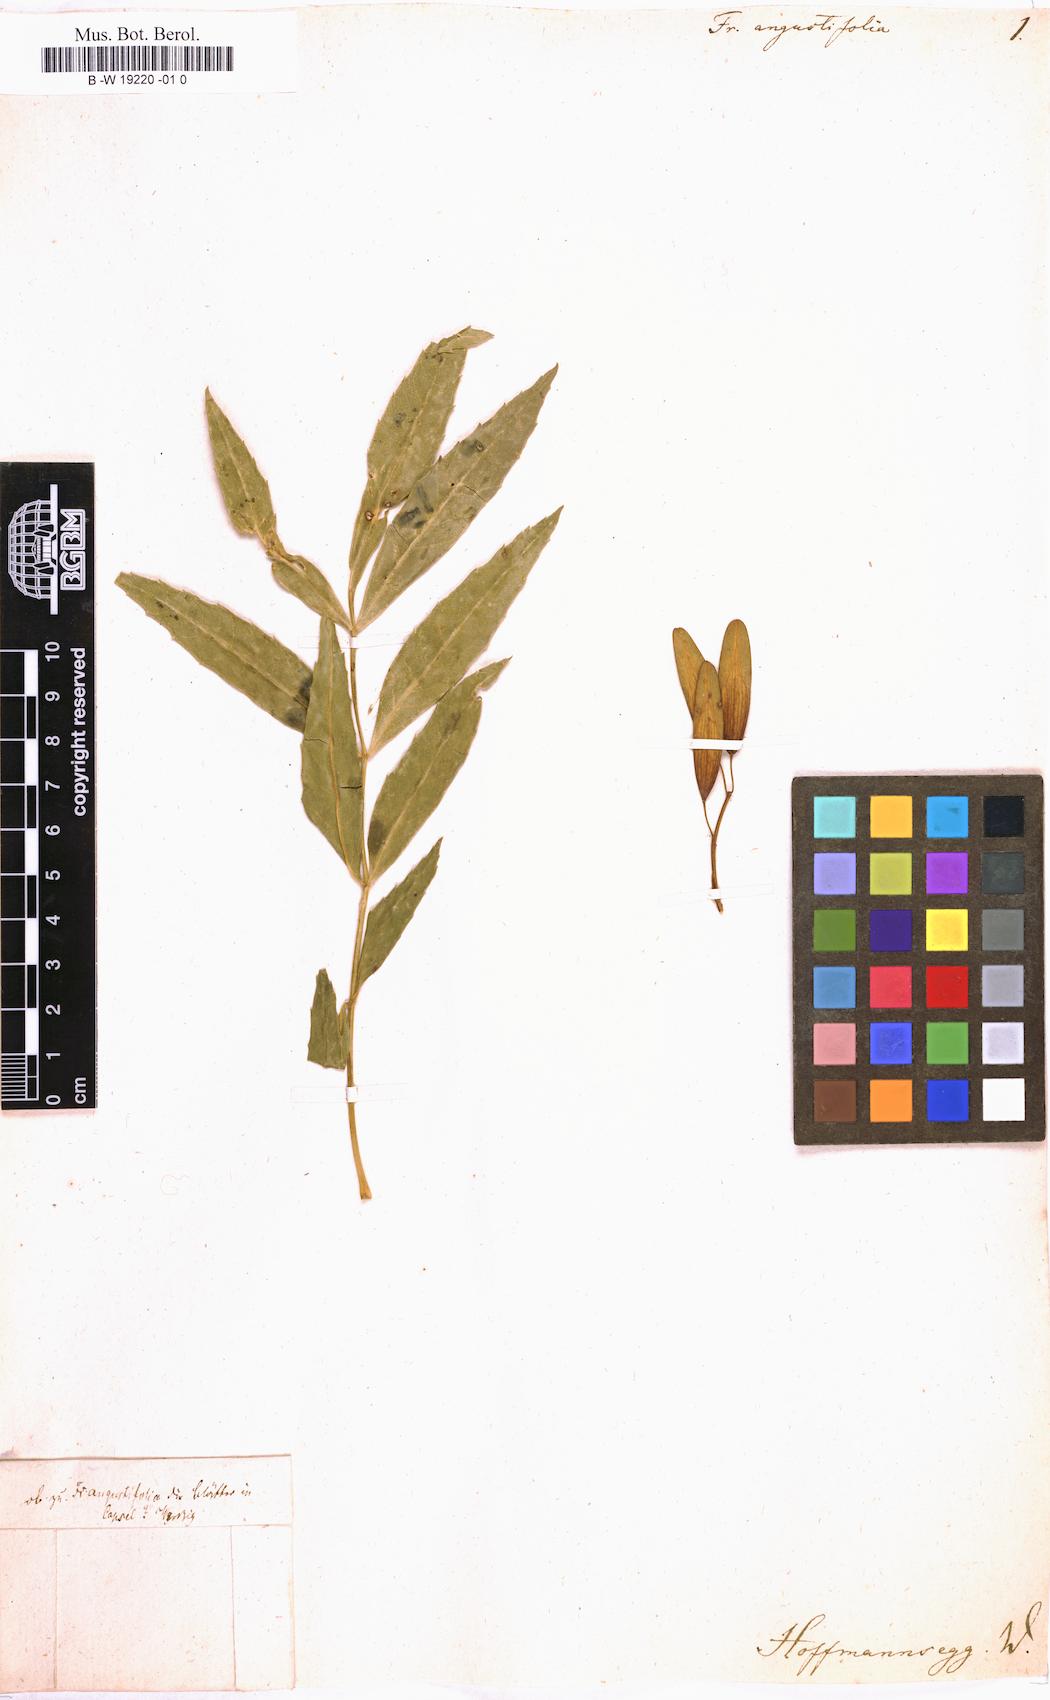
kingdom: Plantae
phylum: Tracheophyta
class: Magnoliopsida
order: Lamiales
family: Oleaceae
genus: Fraxinus
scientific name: Fraxinus angustifolia
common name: Narrow-leafed ash
